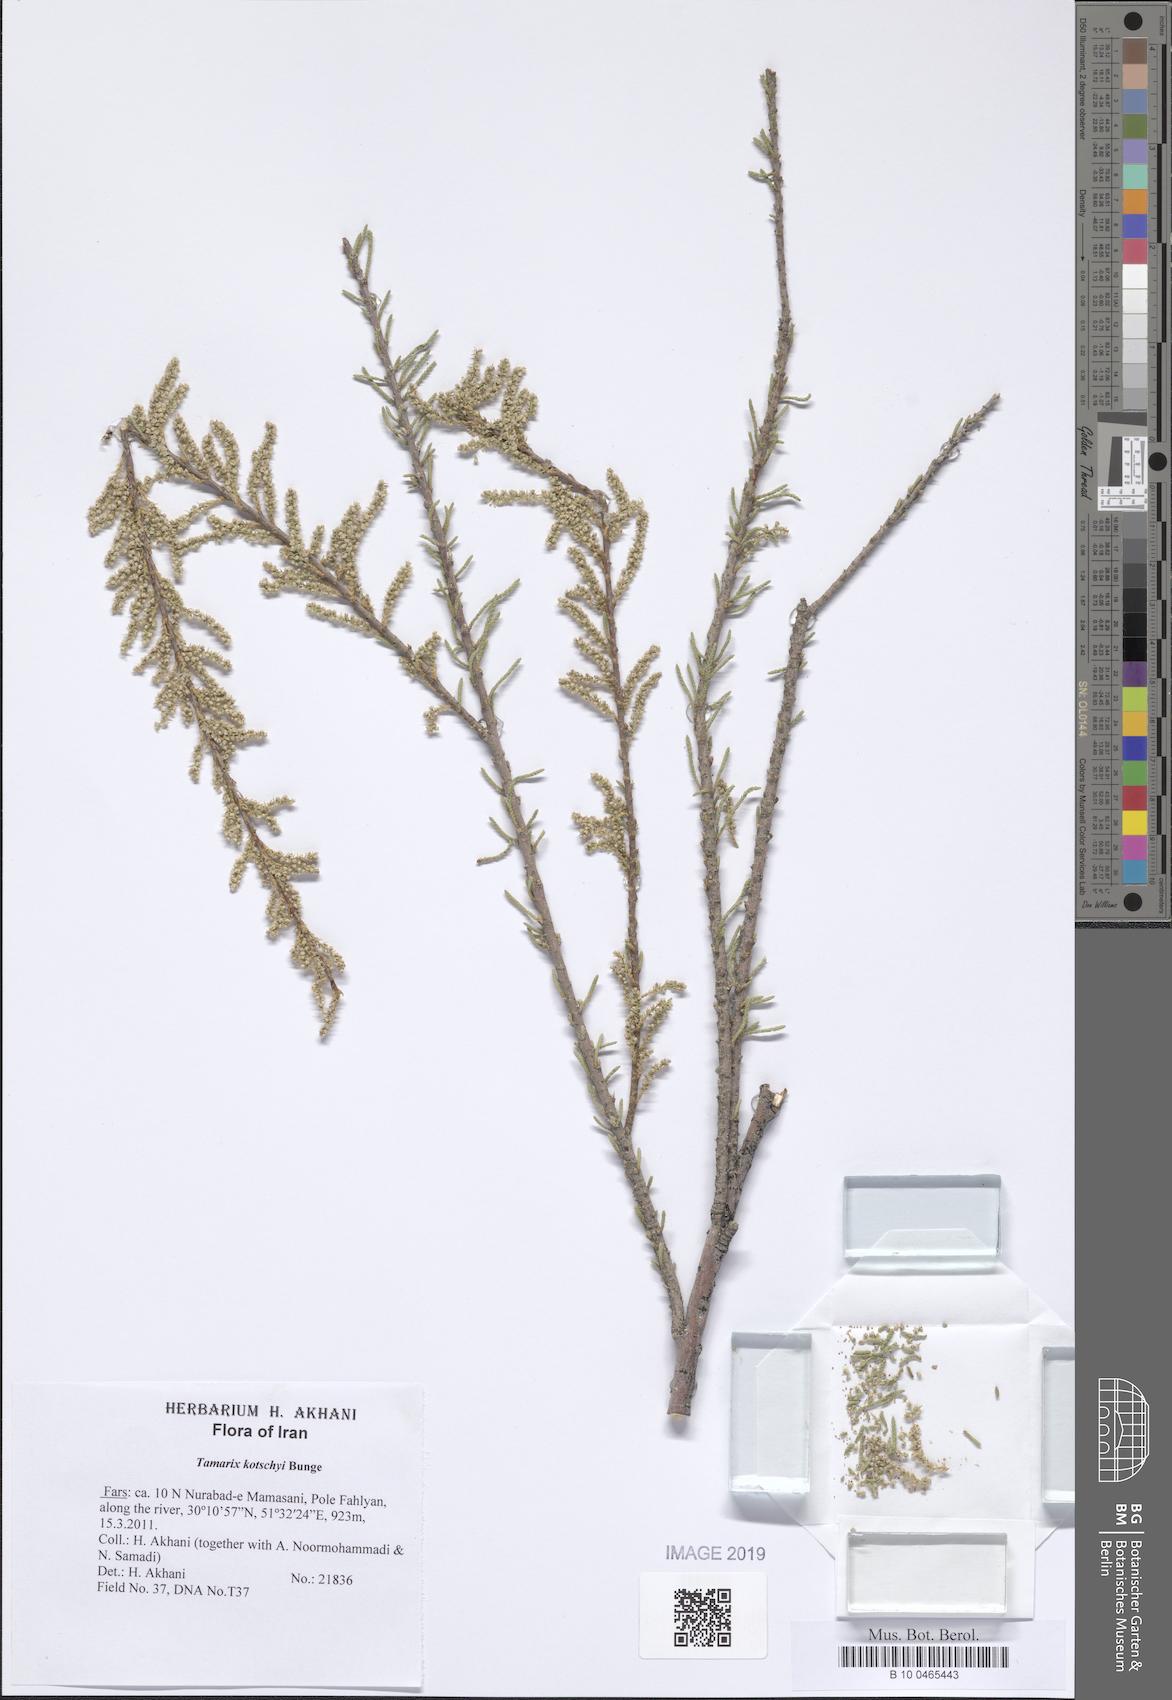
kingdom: Plantae
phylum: Tracheophyta
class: Magnoliopsida
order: Caryophyllales
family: Tamaricaceae
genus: Tamarix
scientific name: Tamarix kotschyi
